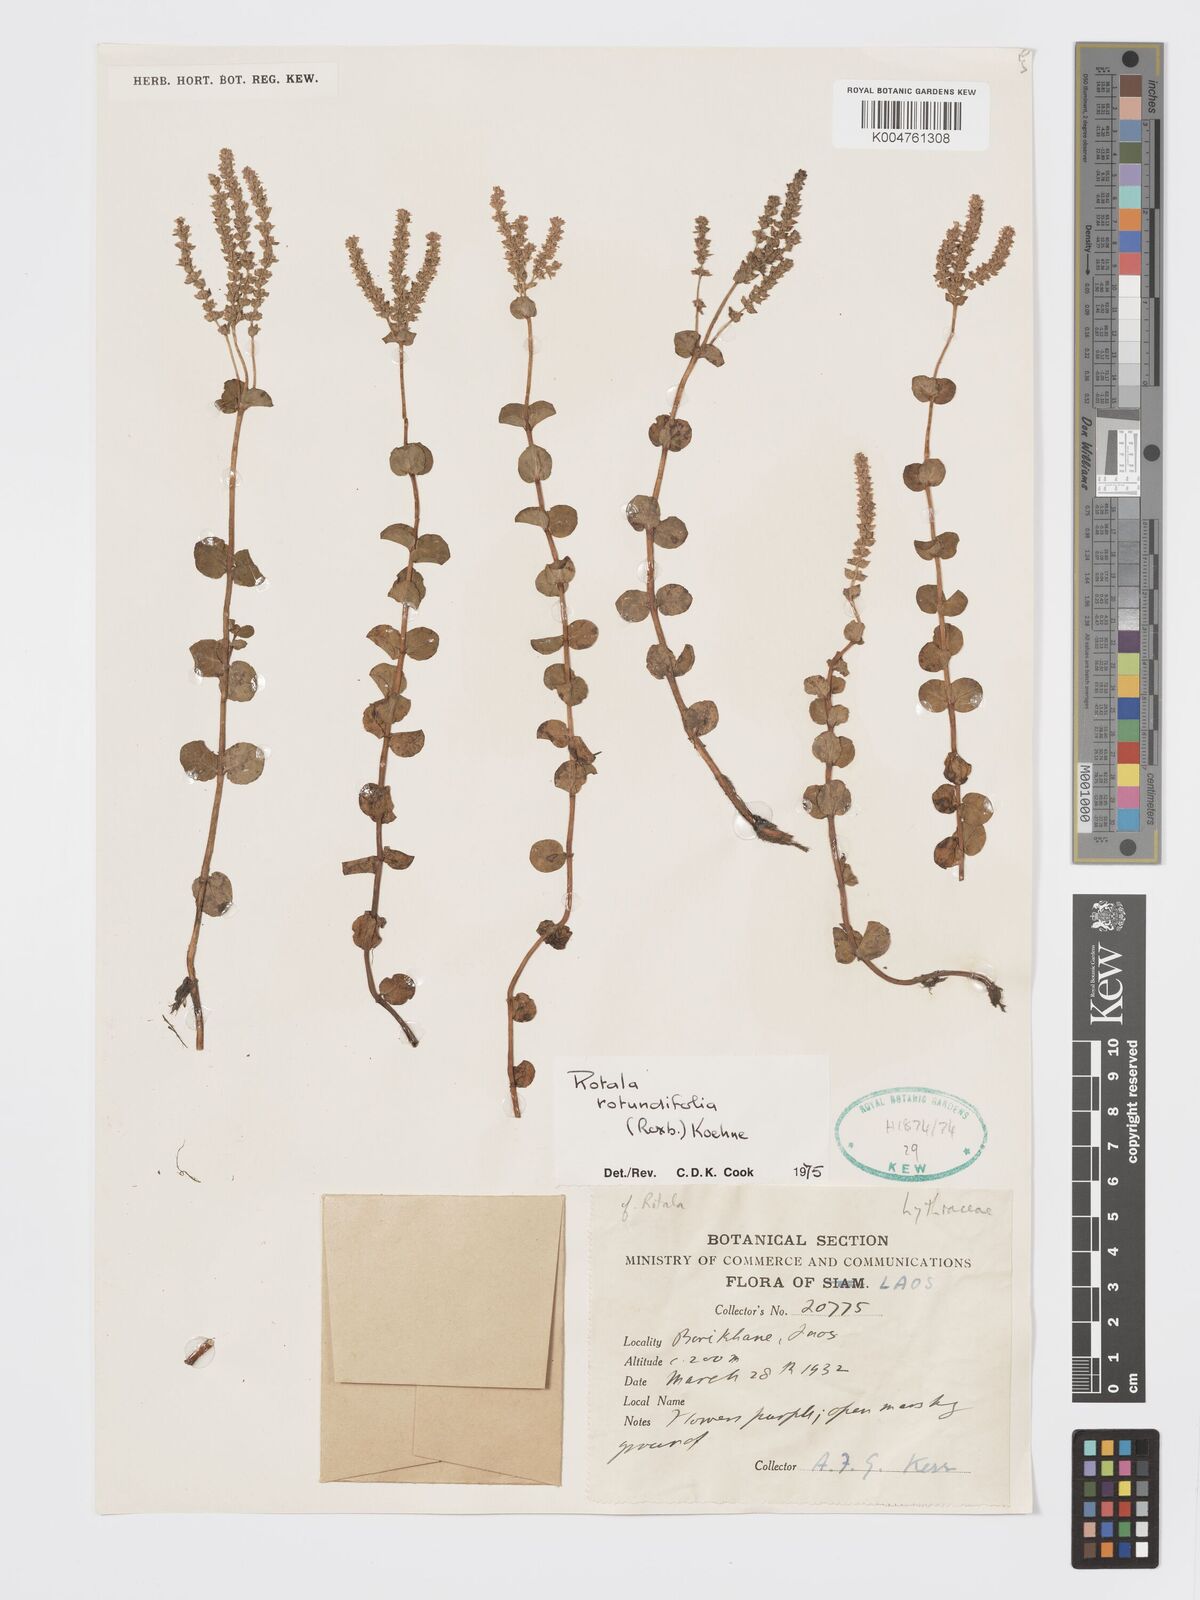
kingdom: Plantae
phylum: Tracheophyta
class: Magnoliopsida
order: Myrtales
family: Lythraceae
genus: Rotala
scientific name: Rotala rotundifolia
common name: Roundleaf toothcup
